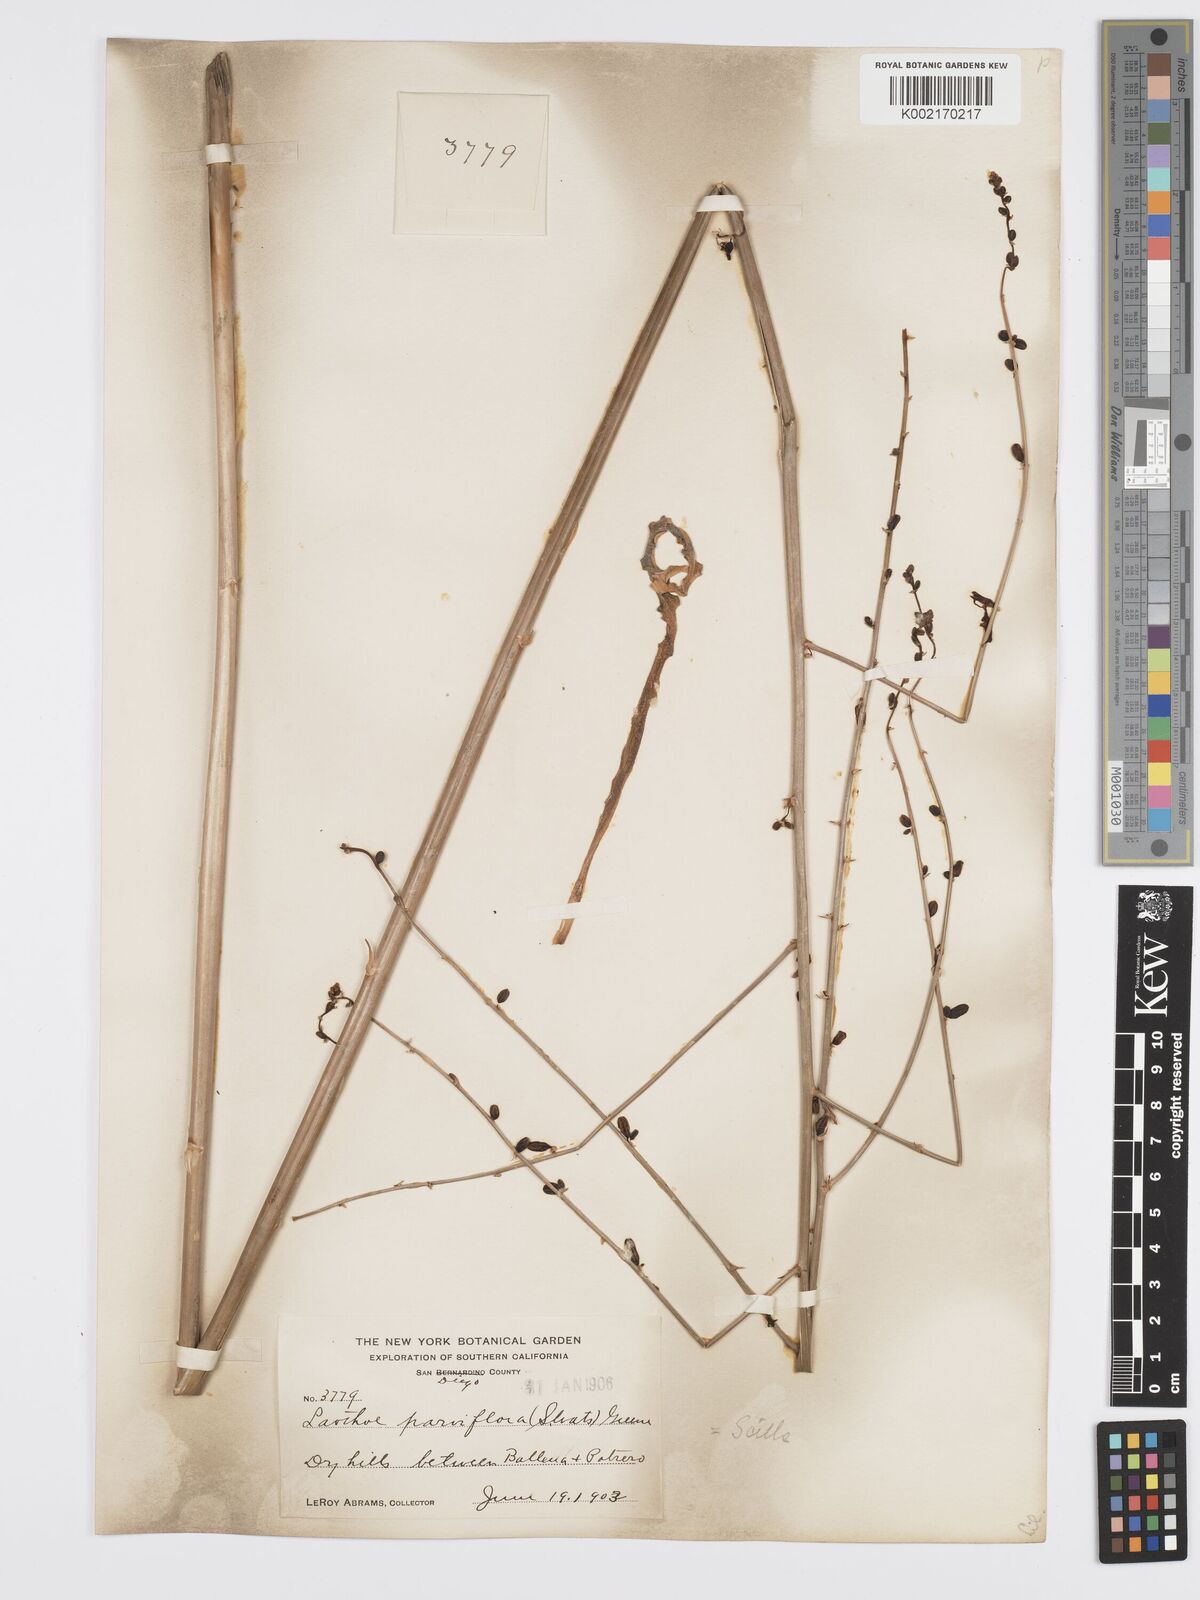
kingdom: Plantae
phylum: Tracheophyta
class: Liliopsida
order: Asparagales
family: Asparagaceae
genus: Hooveria
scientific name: Hooveria parviflora
